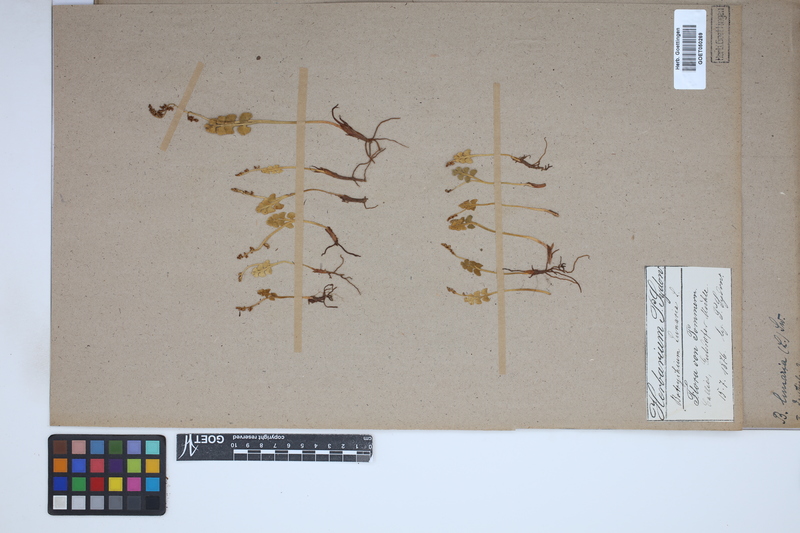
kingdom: Plantae
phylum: Tracheophyta
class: Polypodiopsida
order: Ophioglossales
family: Ophioglossaceae
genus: Botrychium
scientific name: Botrychium lunaria
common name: Moonwort
